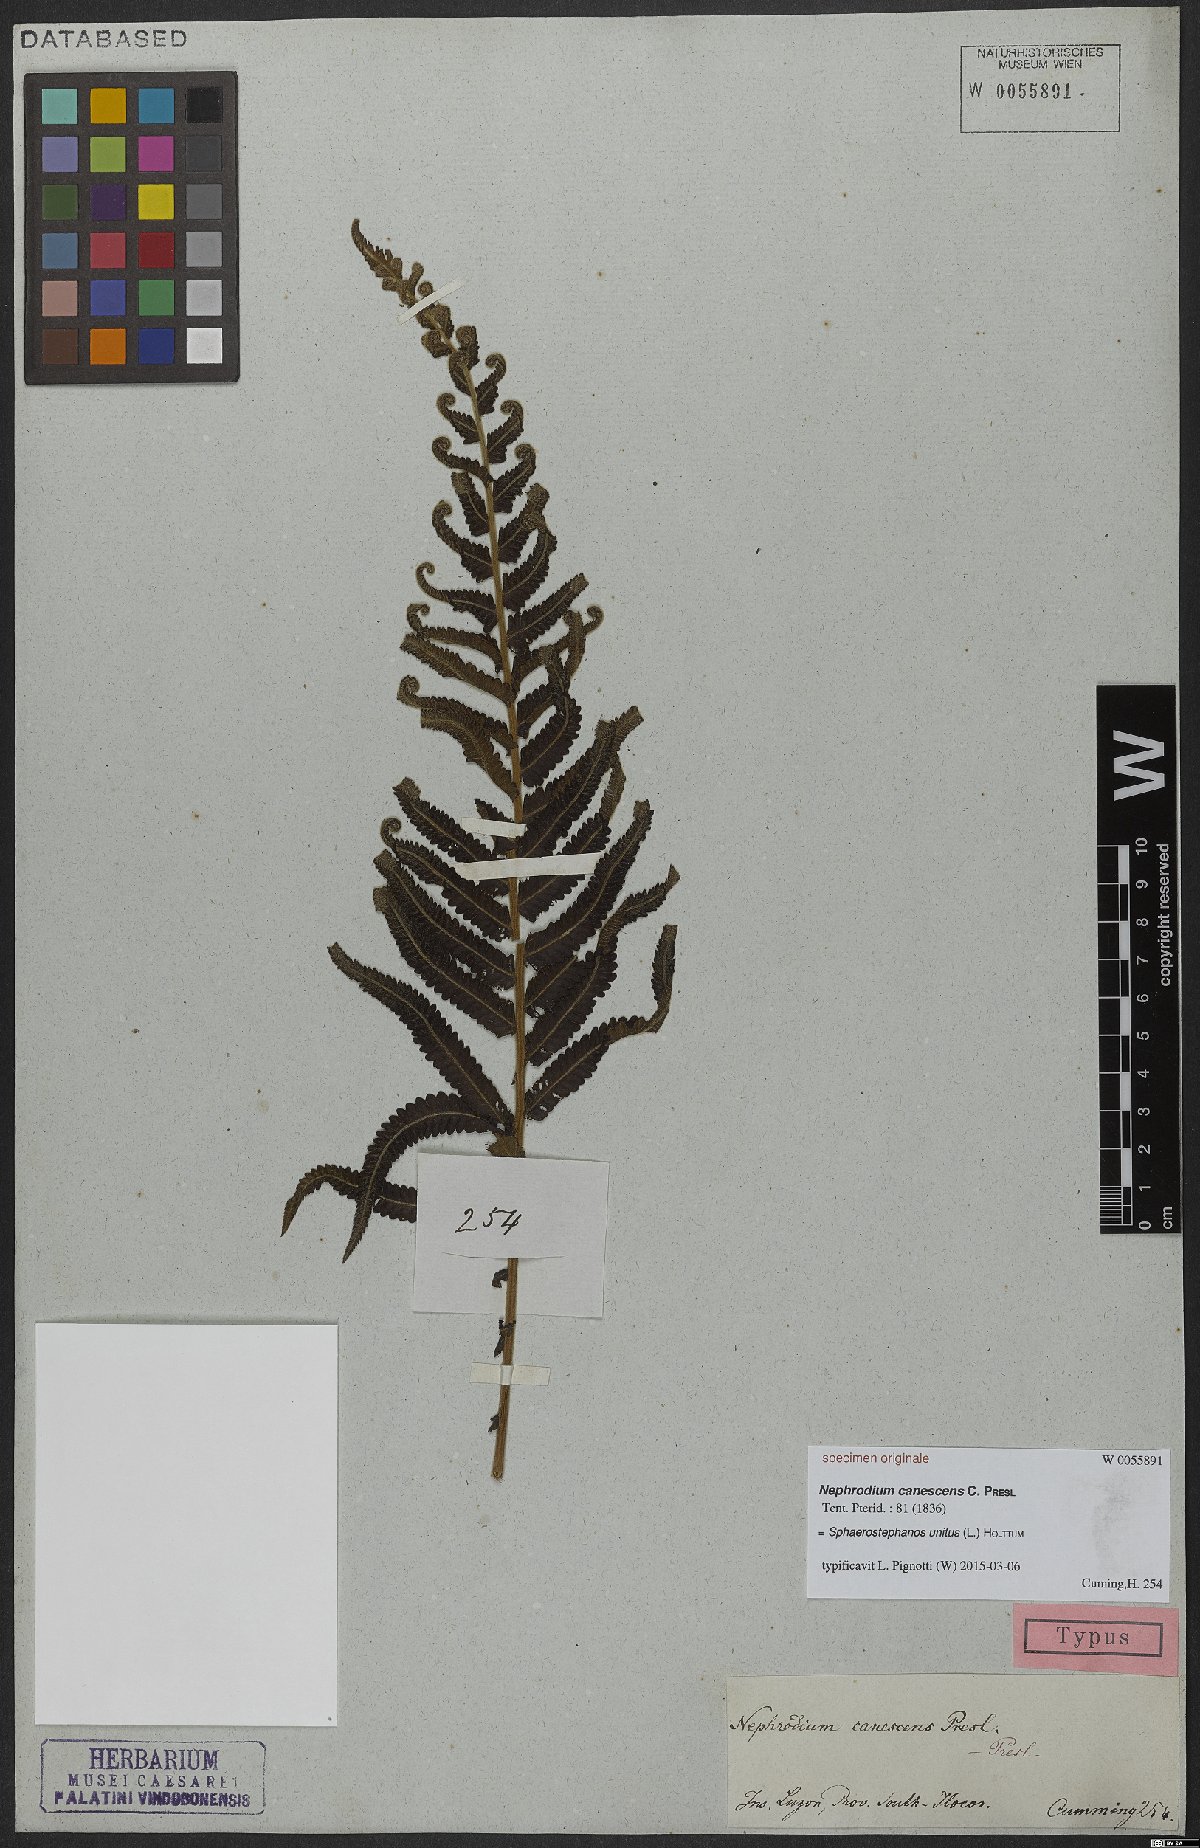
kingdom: Plantae
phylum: Tracheophyta
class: Polypodiopsida
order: Polypodiales
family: Thelypteridaceae
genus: Strophocaulon
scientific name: Strophocaulon unitum
